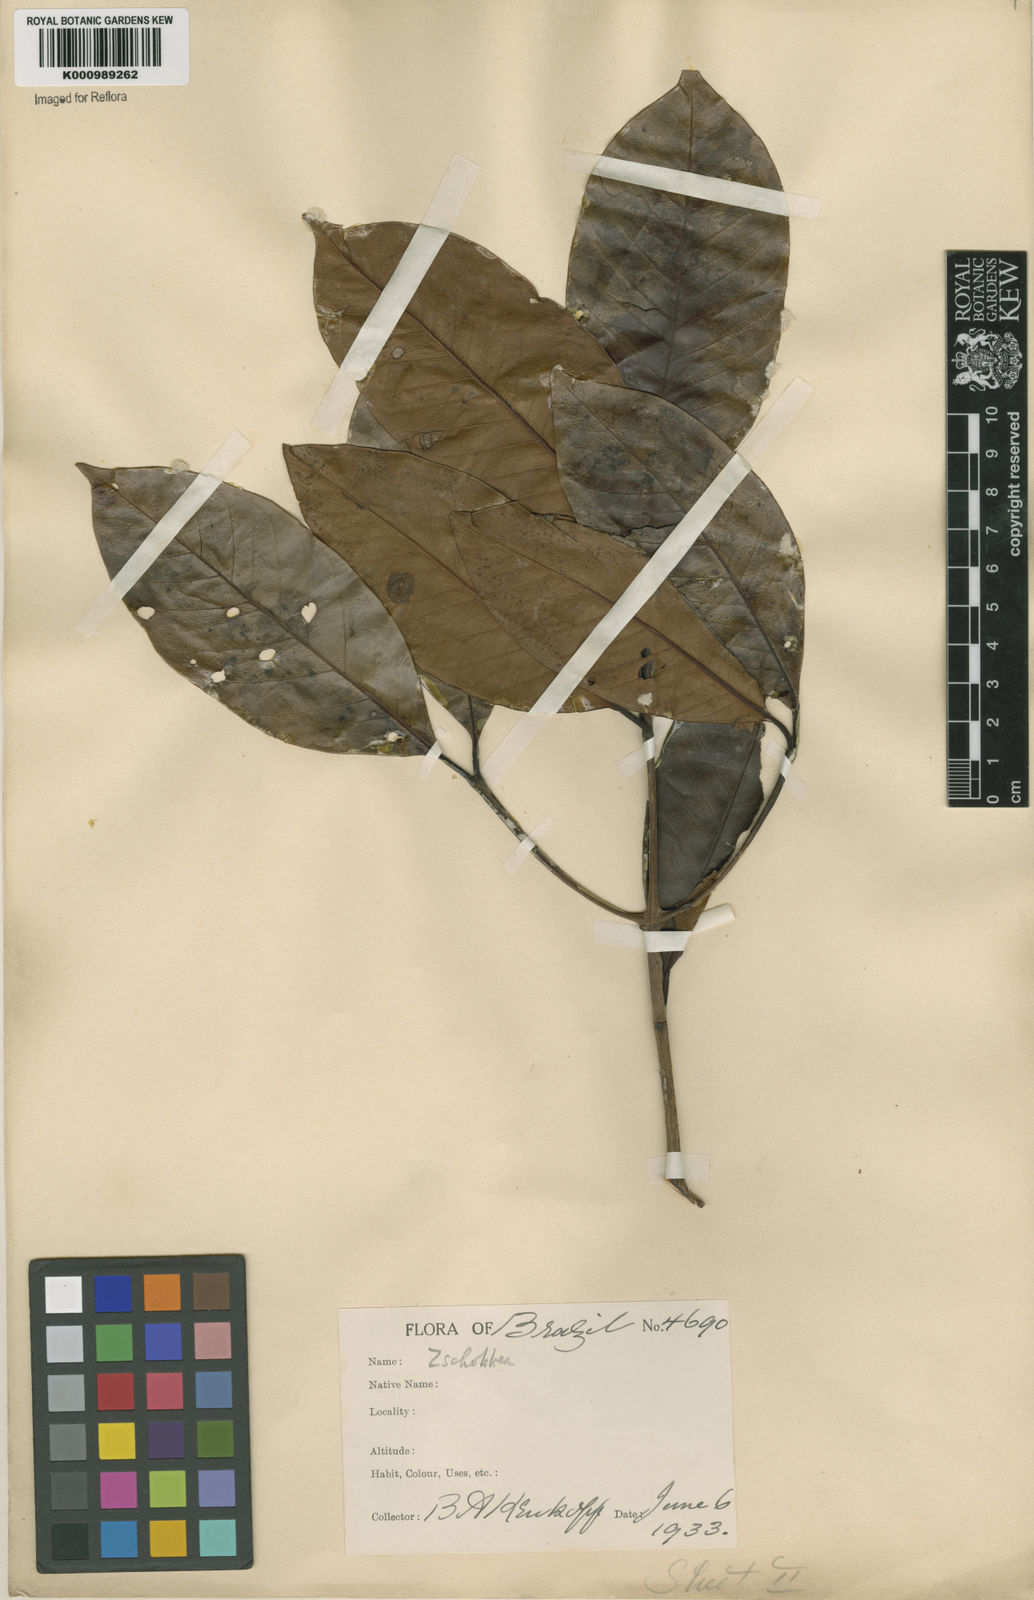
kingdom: Plantae
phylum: Tracheophyta
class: Magnoliopsida
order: Gentianales
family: Apocynaceae
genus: Lacmellea
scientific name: Lacmellea
